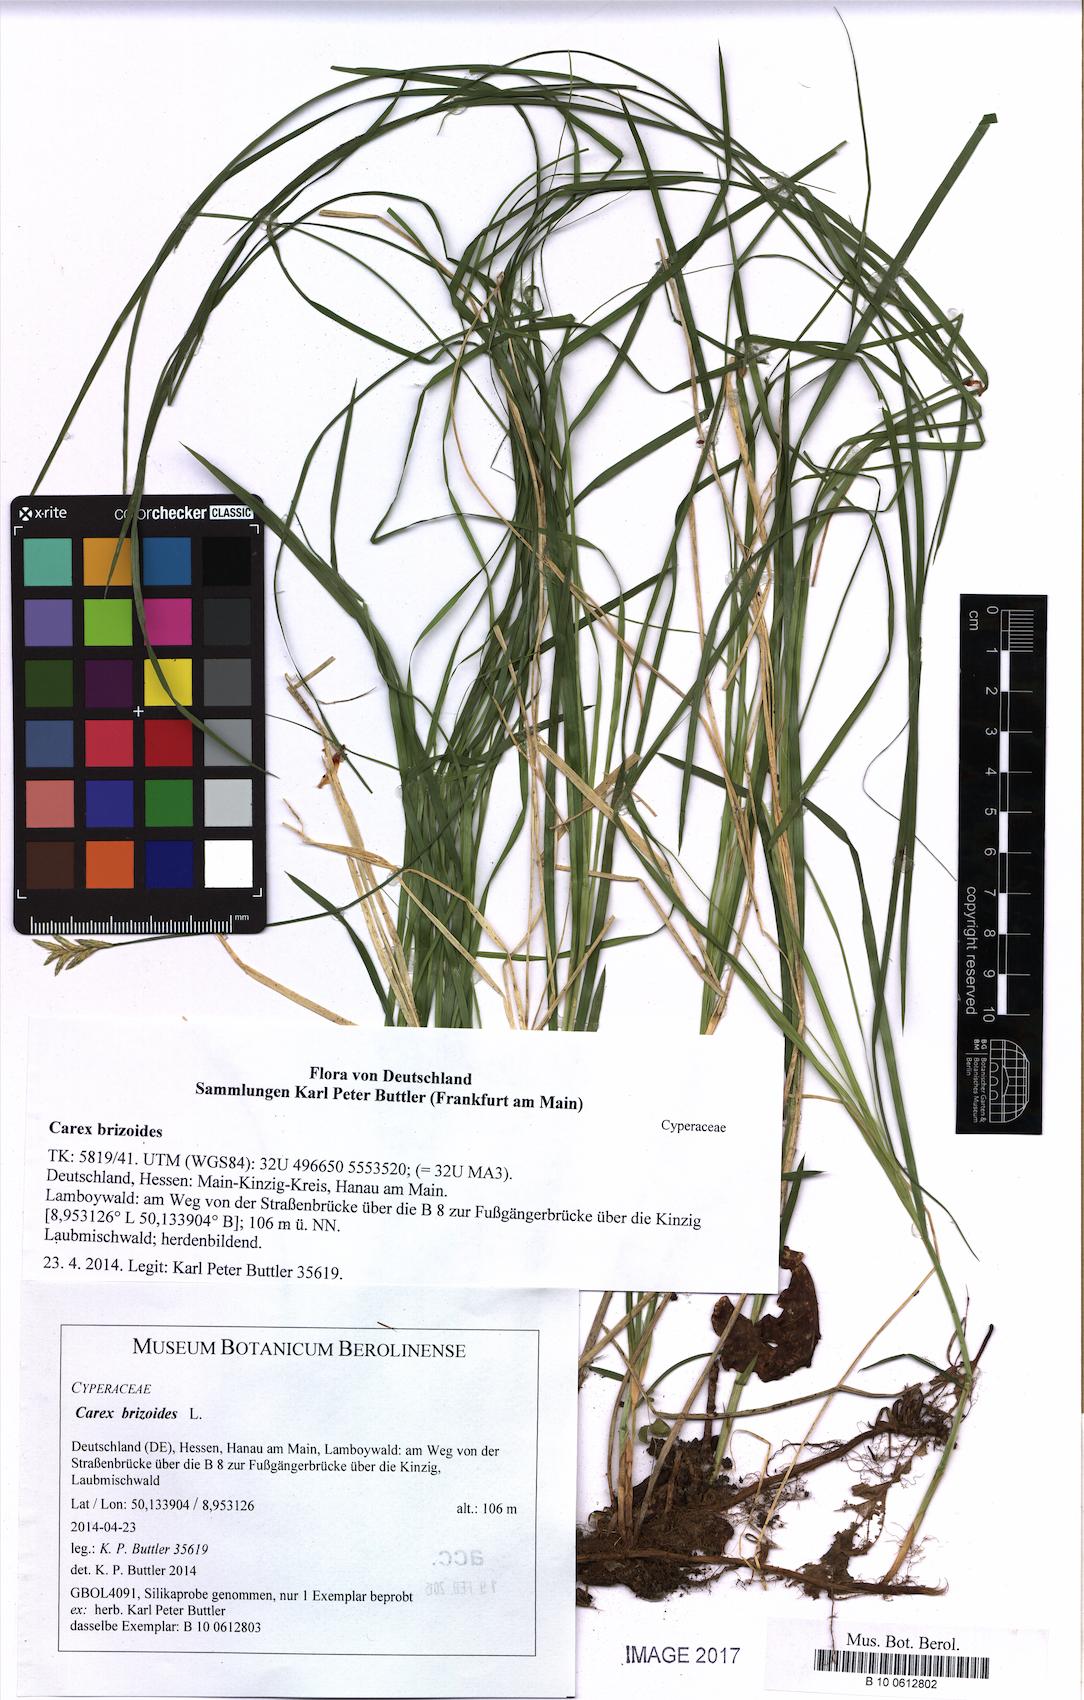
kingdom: Plantae
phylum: Tracheophyta
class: Liliopsida
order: Poales
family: Cyperaceae
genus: Carex
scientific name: Carex brizoides
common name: Quaking-grass sedge
